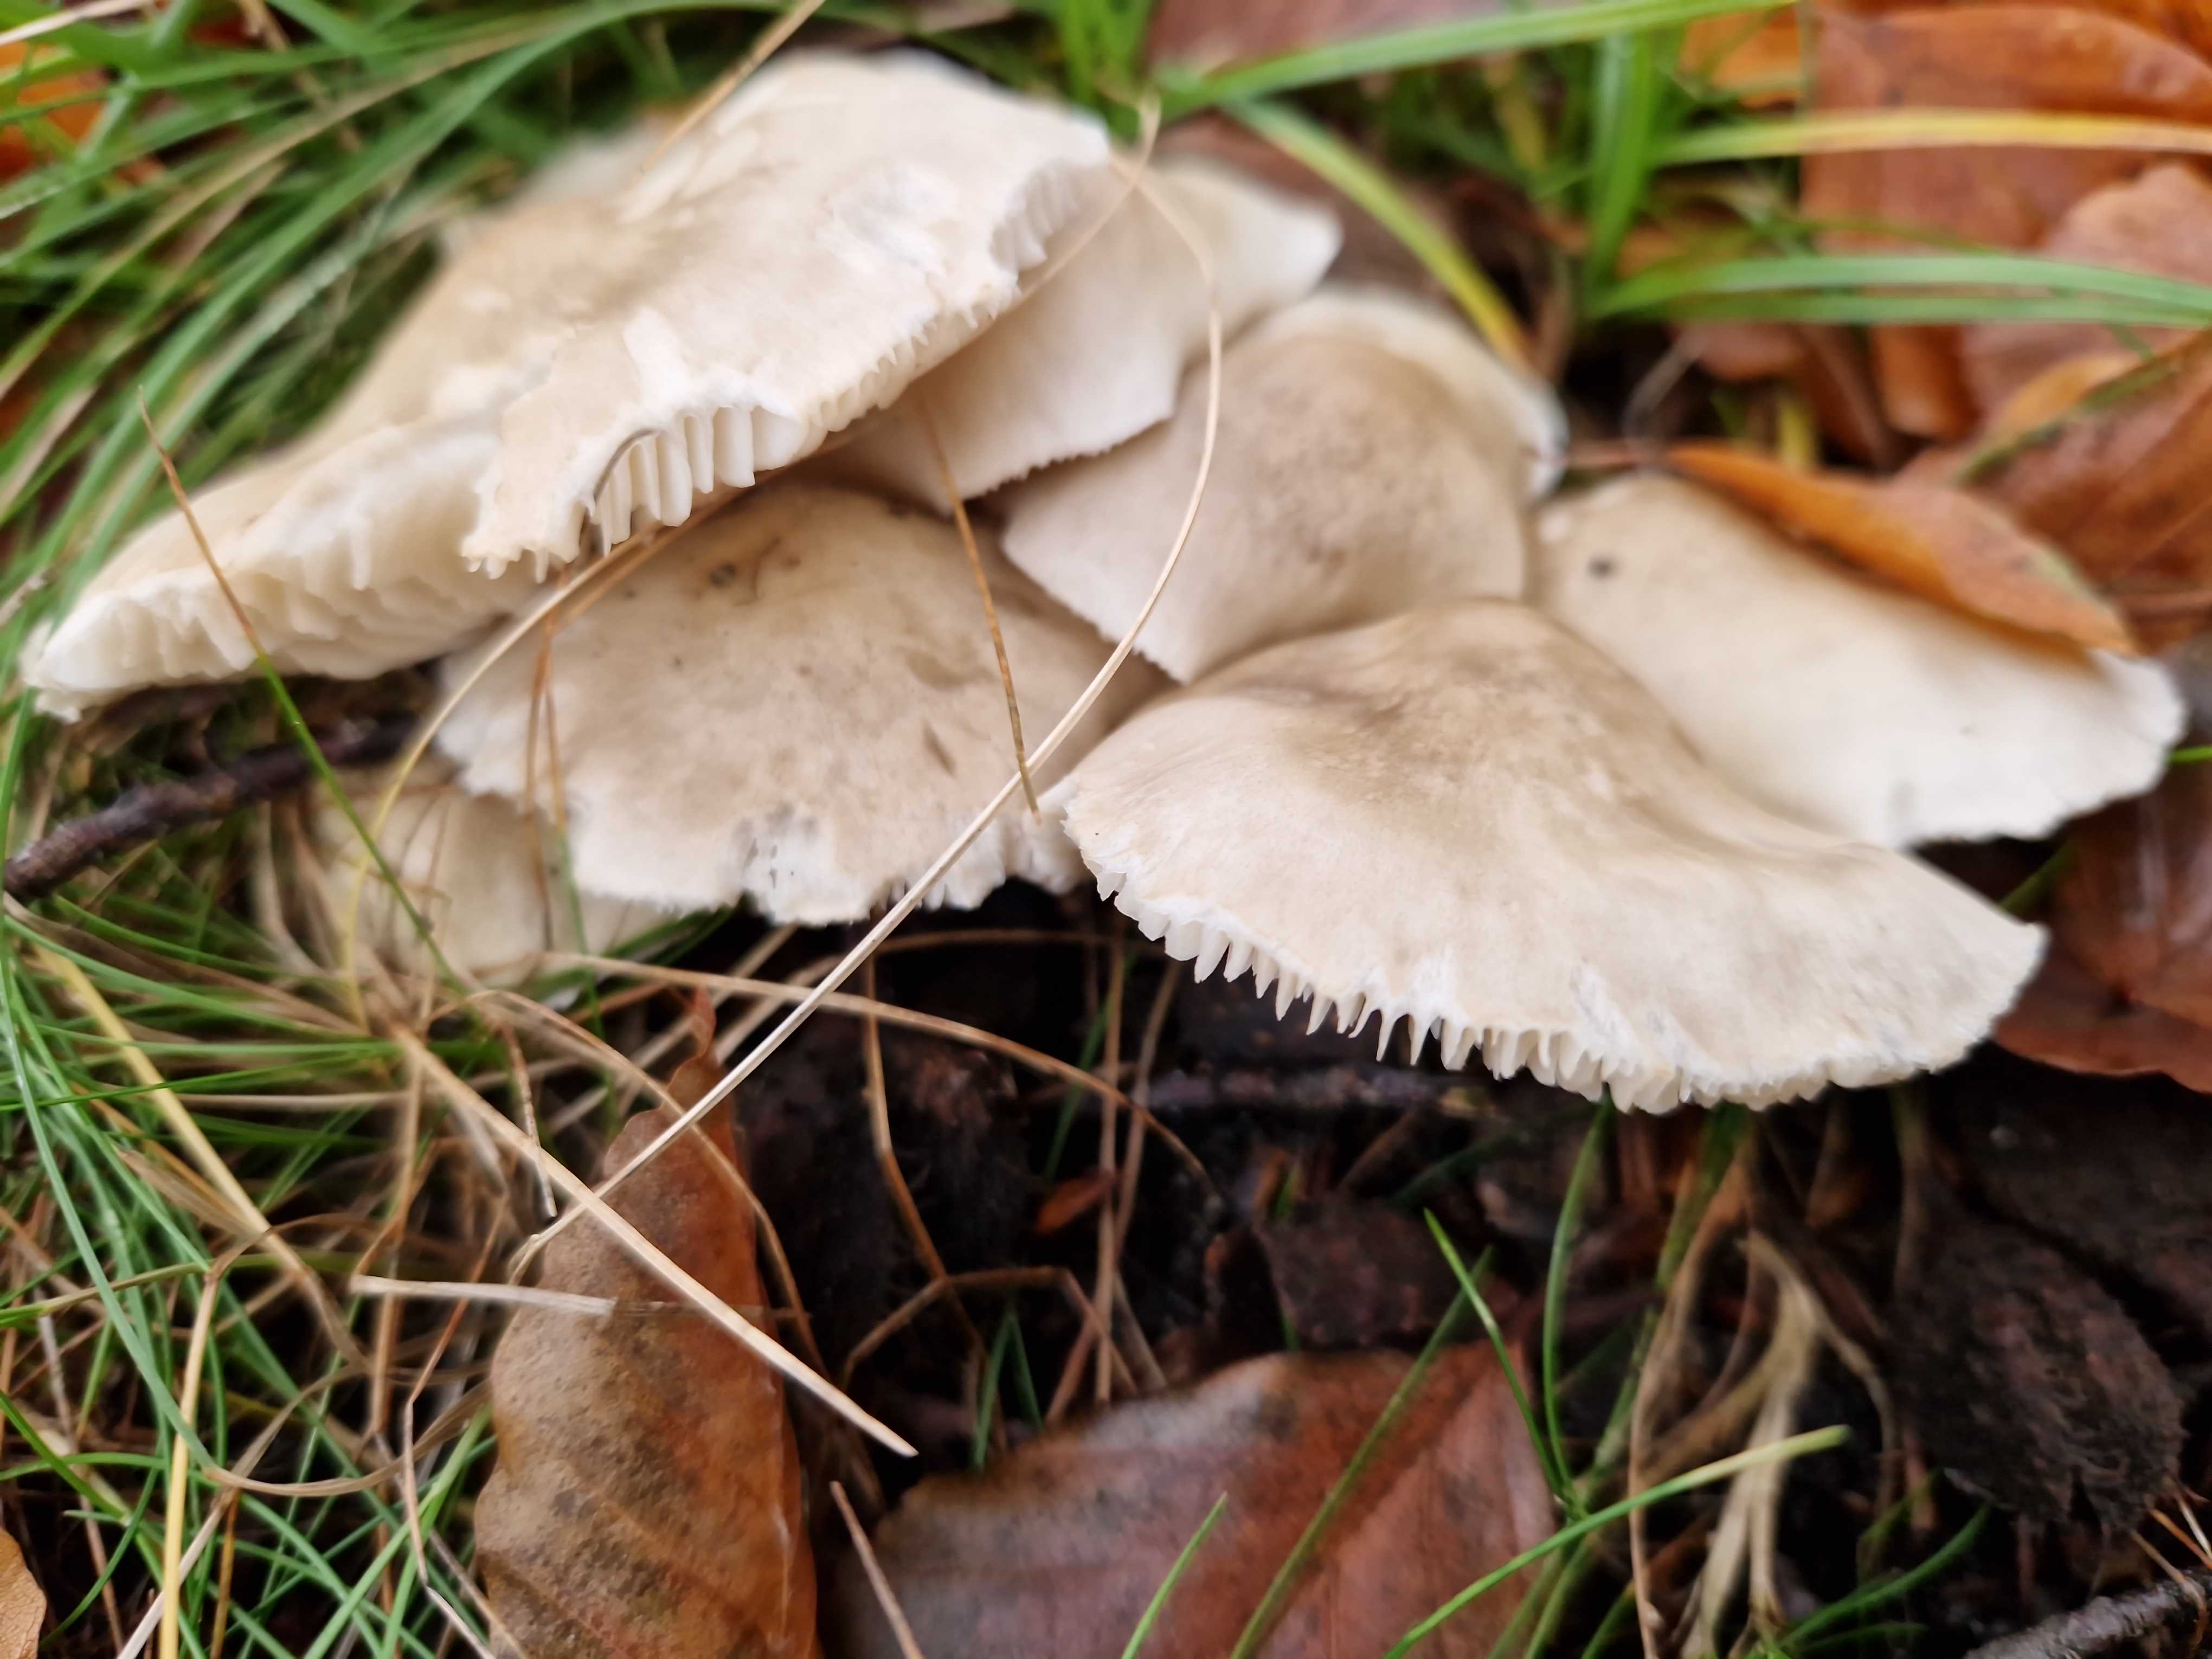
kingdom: Fungi
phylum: Basidiomycota
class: Agaricomycetes
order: Agaricales
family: Tricholomataceae
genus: Tricholoma
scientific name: Tricholoma saponaceum
